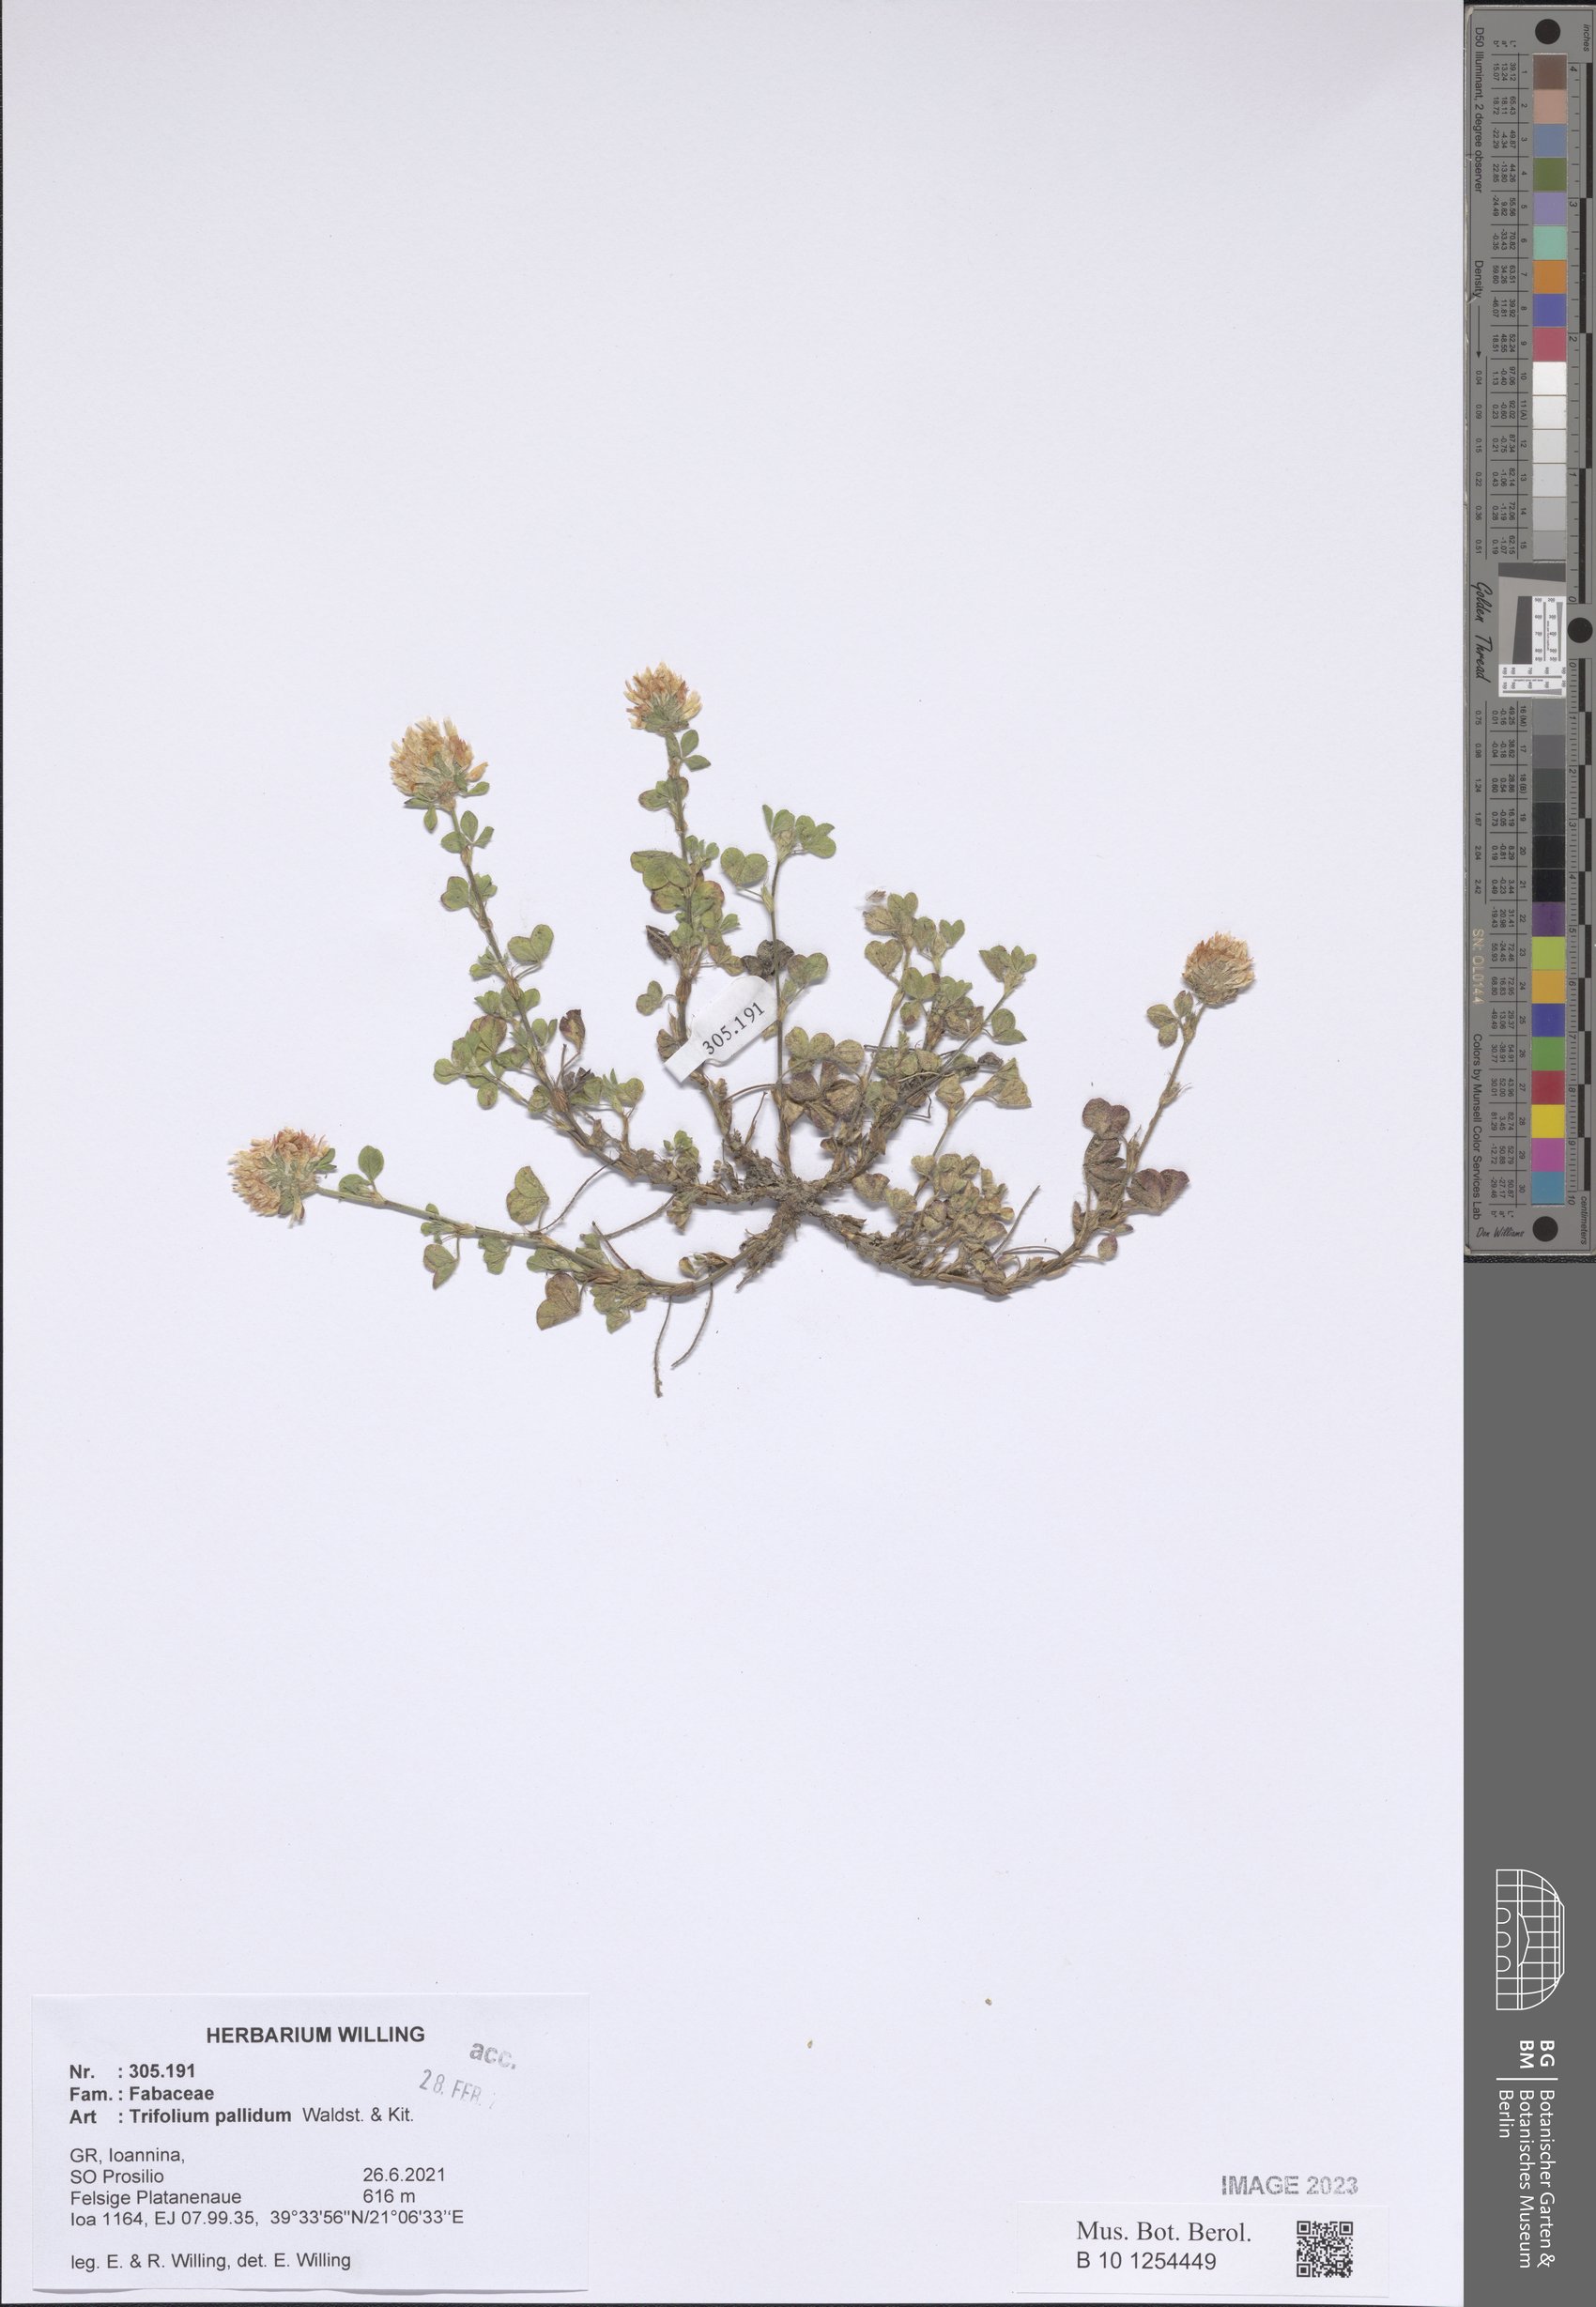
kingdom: Plantae
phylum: Tracheophyta
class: Magnoliopsida
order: Fabales
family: Fabaceae
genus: Trifolium
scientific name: Trifolium pallidum
